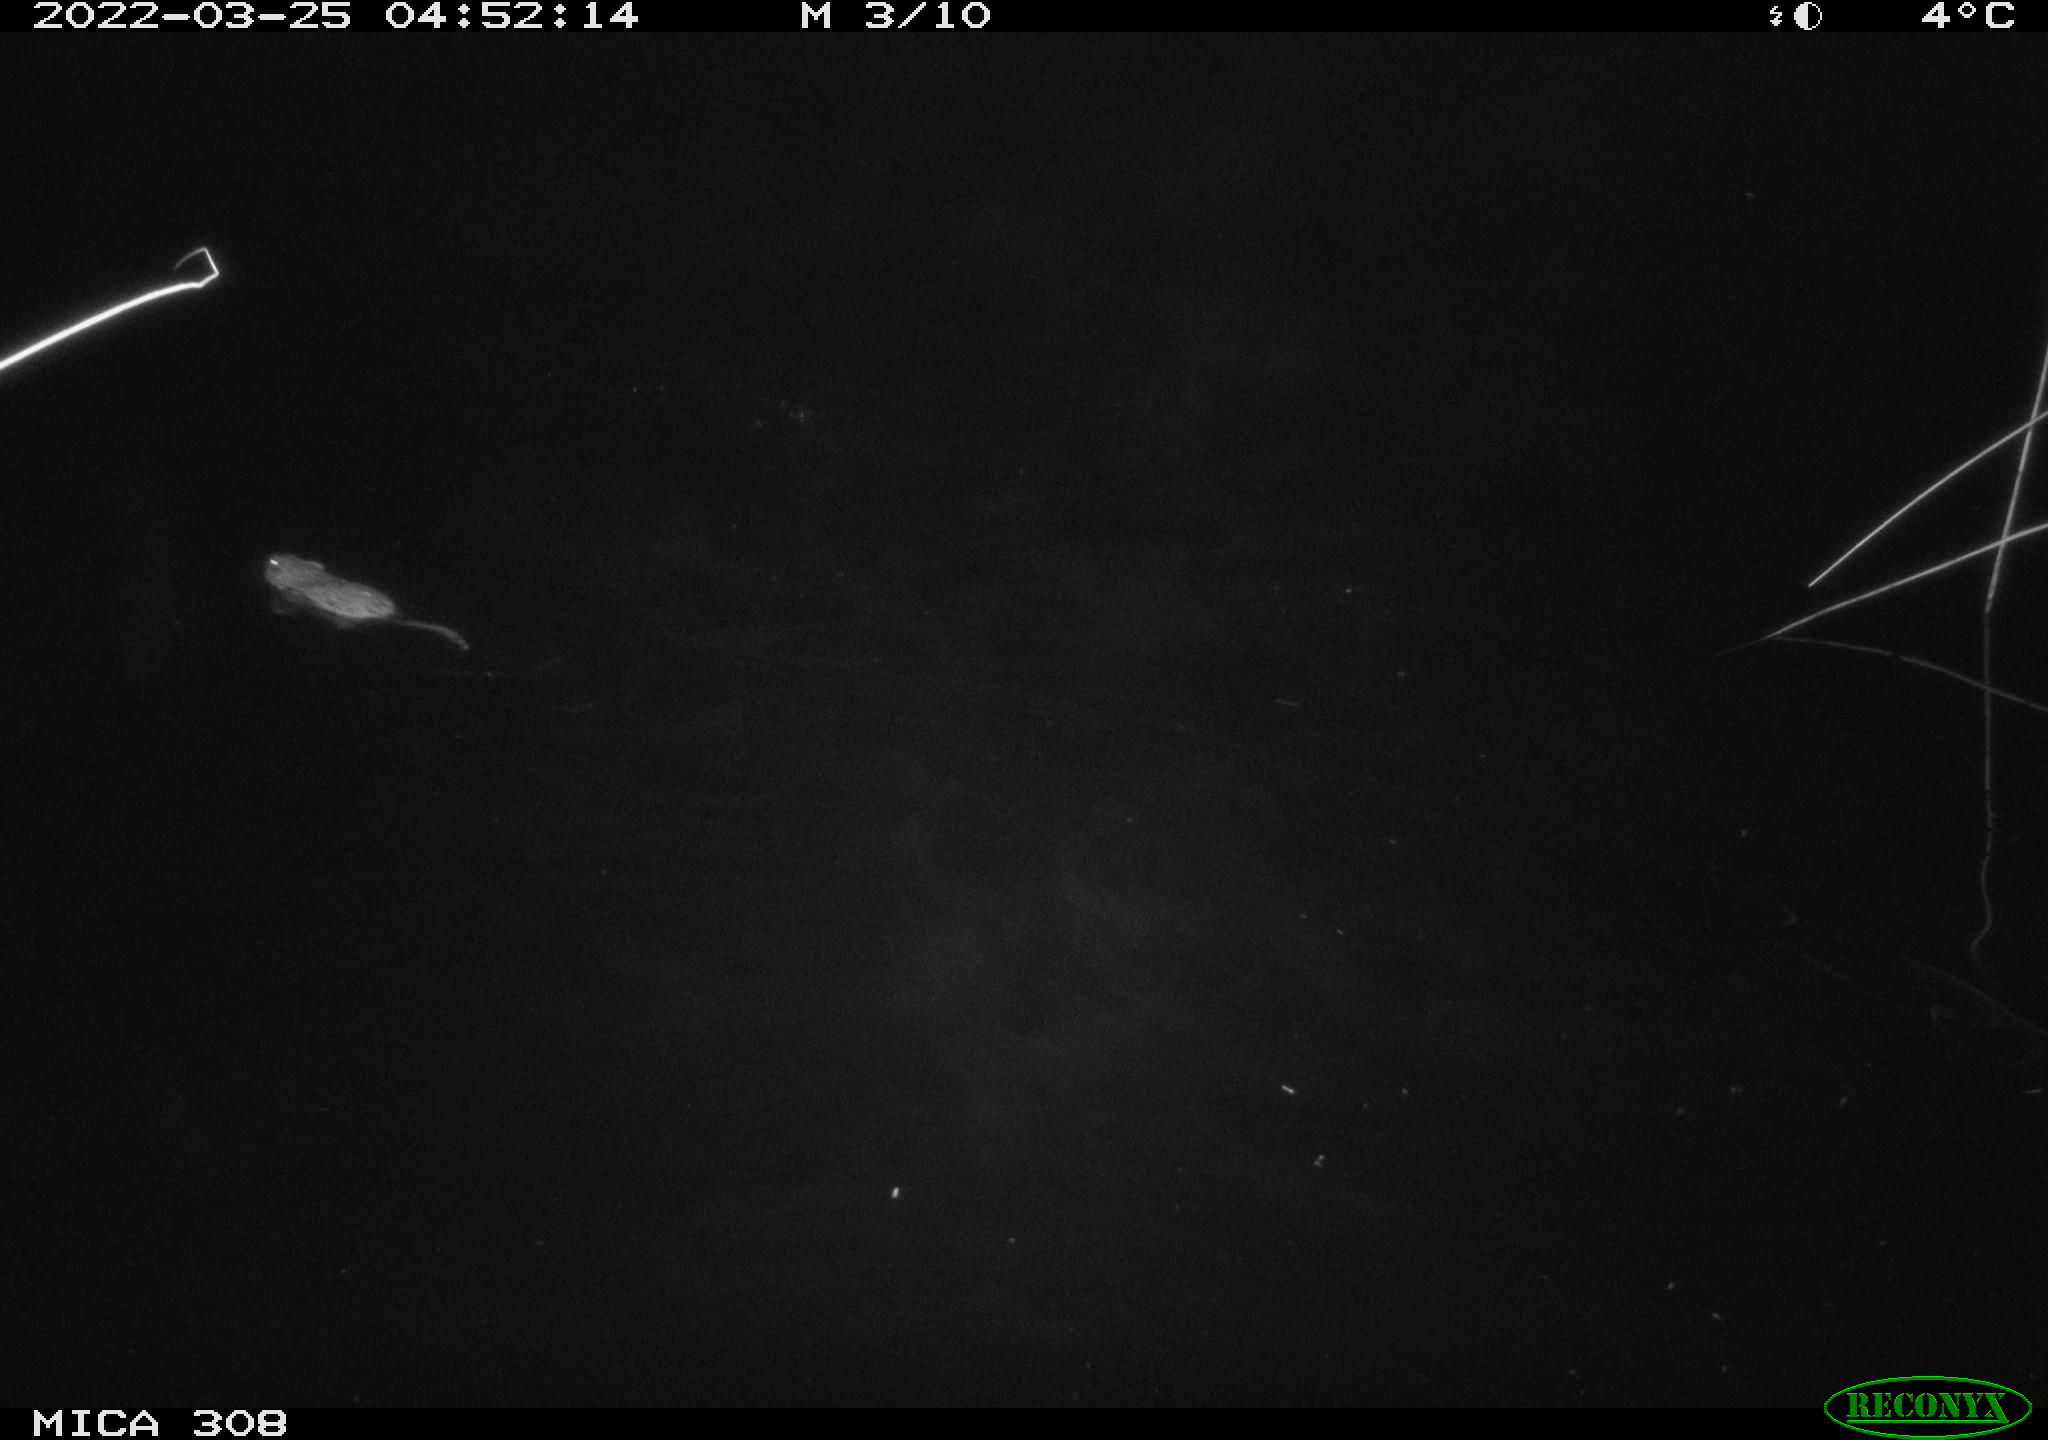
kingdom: Animalia
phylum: Chordata
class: Mammalia
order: Rodentia
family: Cricetidae
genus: Ondatra
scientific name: Ondatra zibethicus
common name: Muskrat
